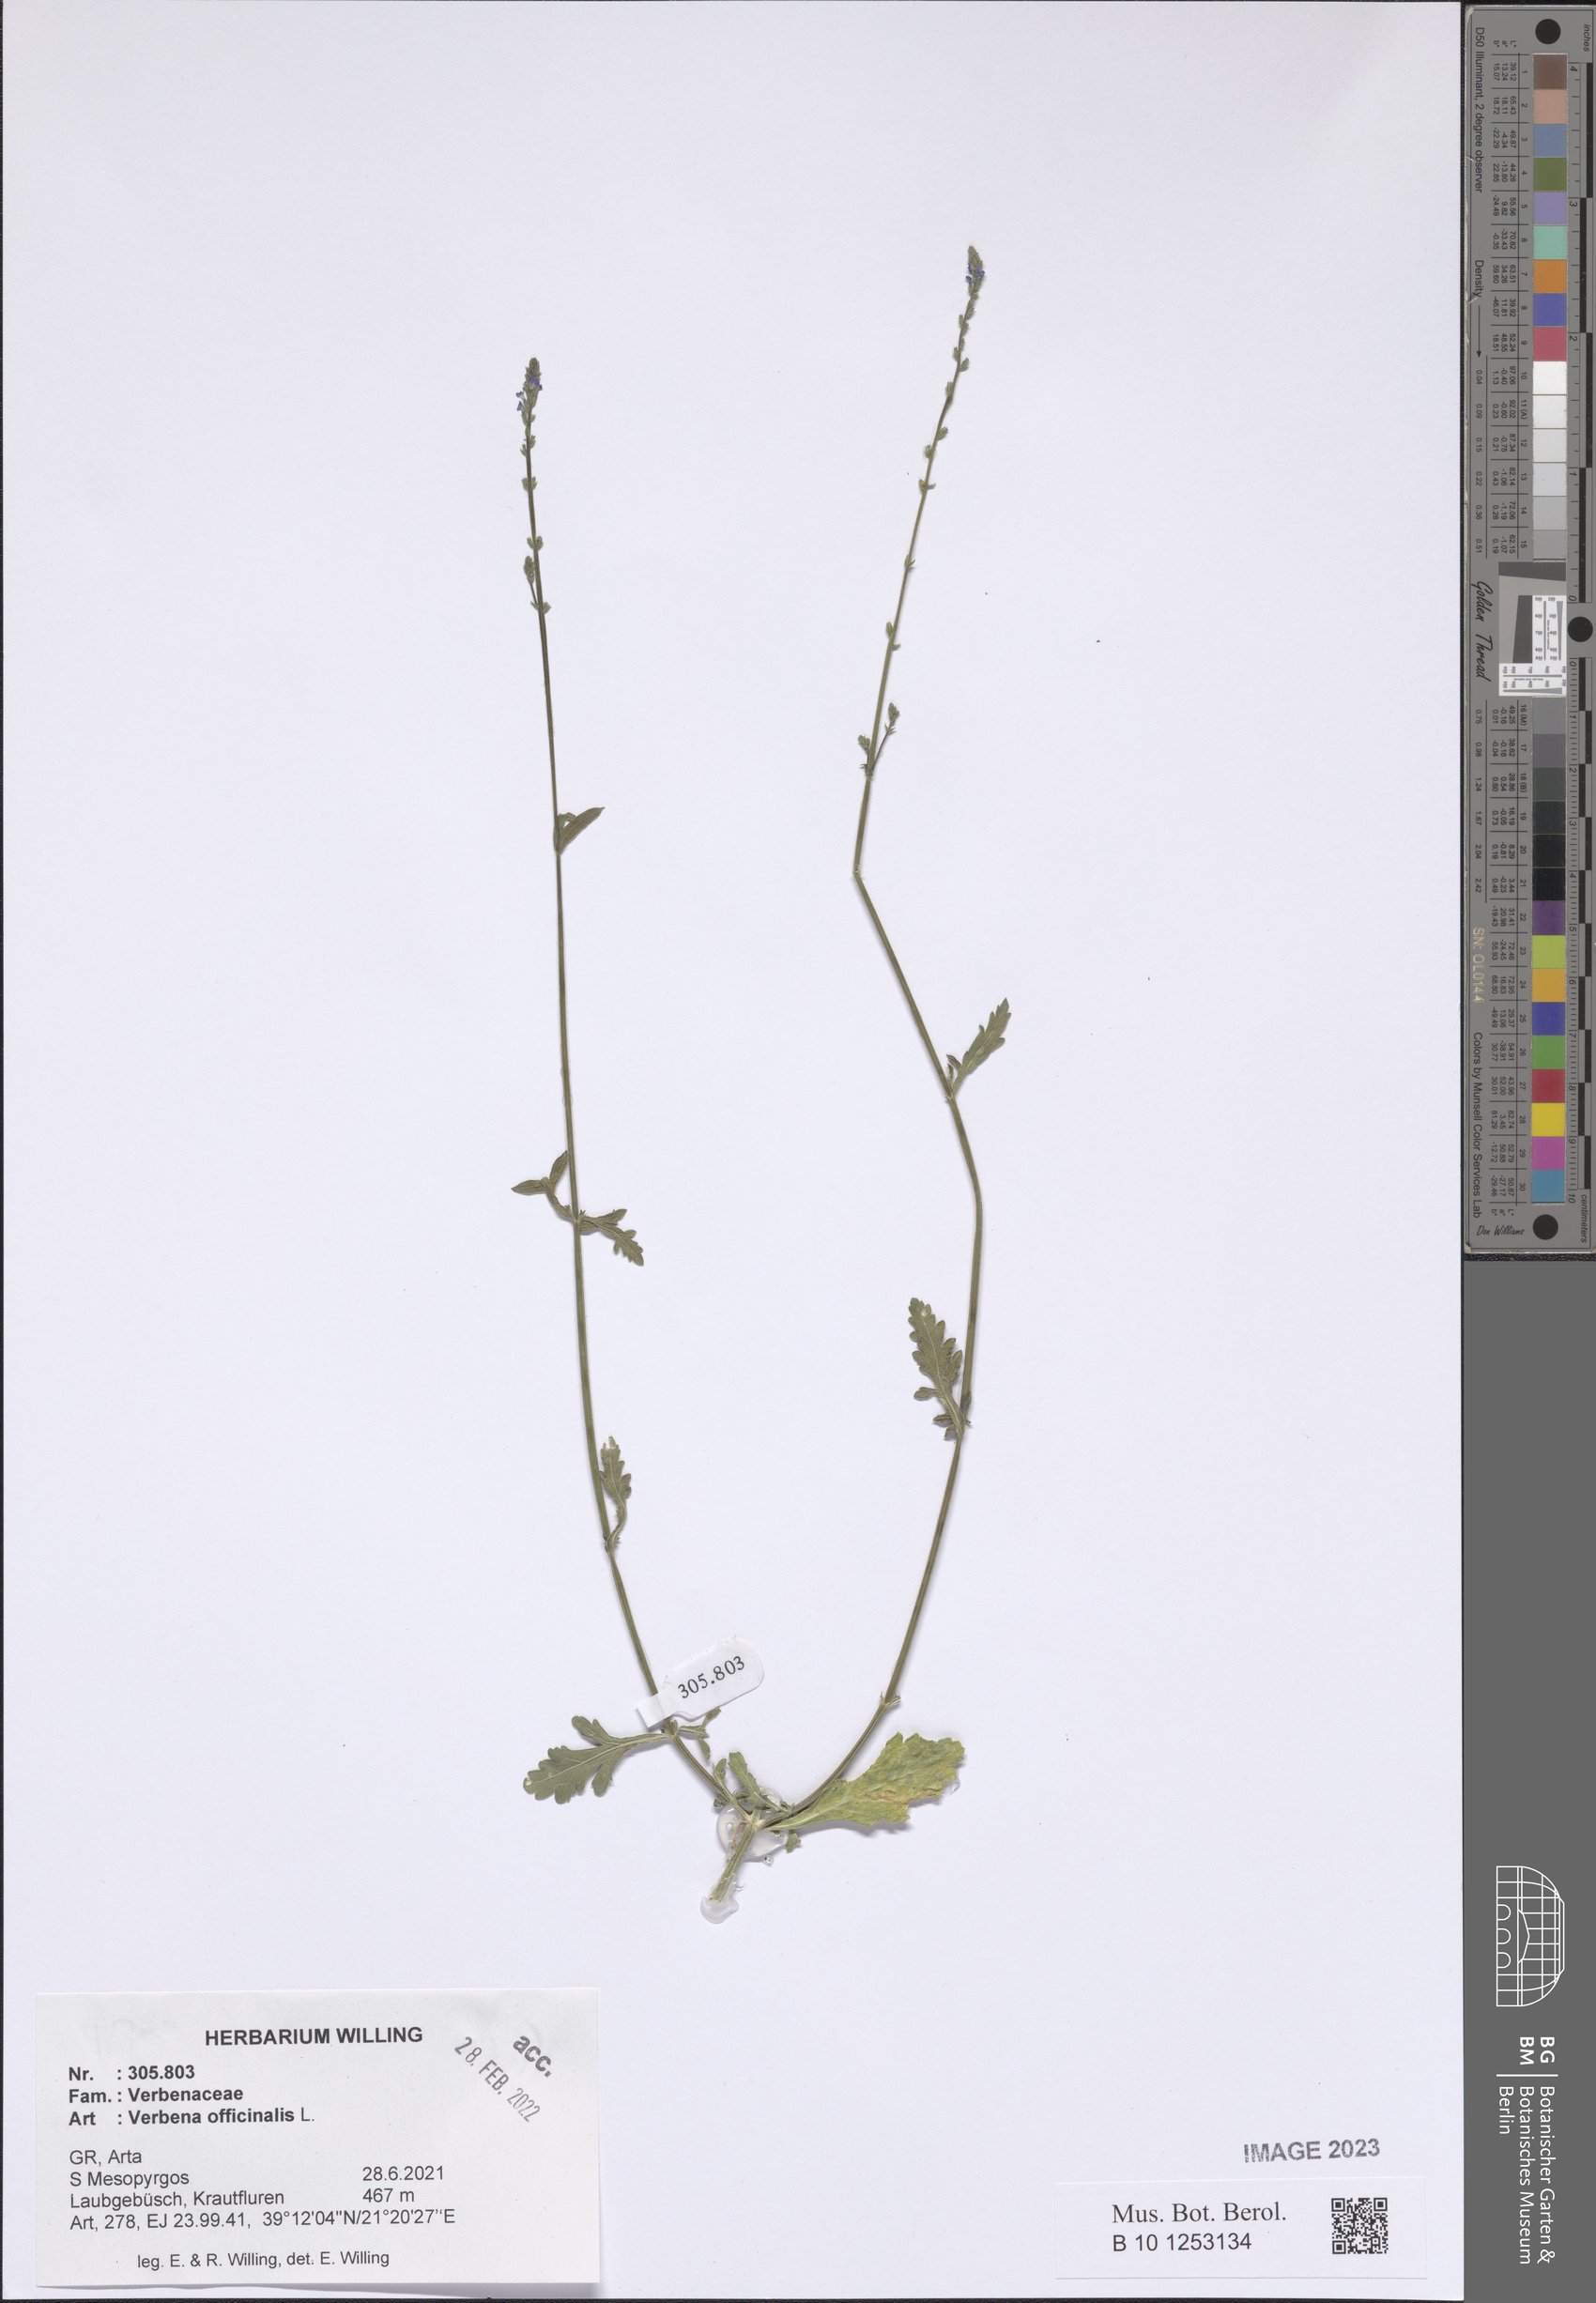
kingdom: Plantae
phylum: Tracheophyta
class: Magnoliopsida
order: Lamiales
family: Verbenaceae
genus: Verbena
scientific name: Verbena officinalis
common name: Vervain
